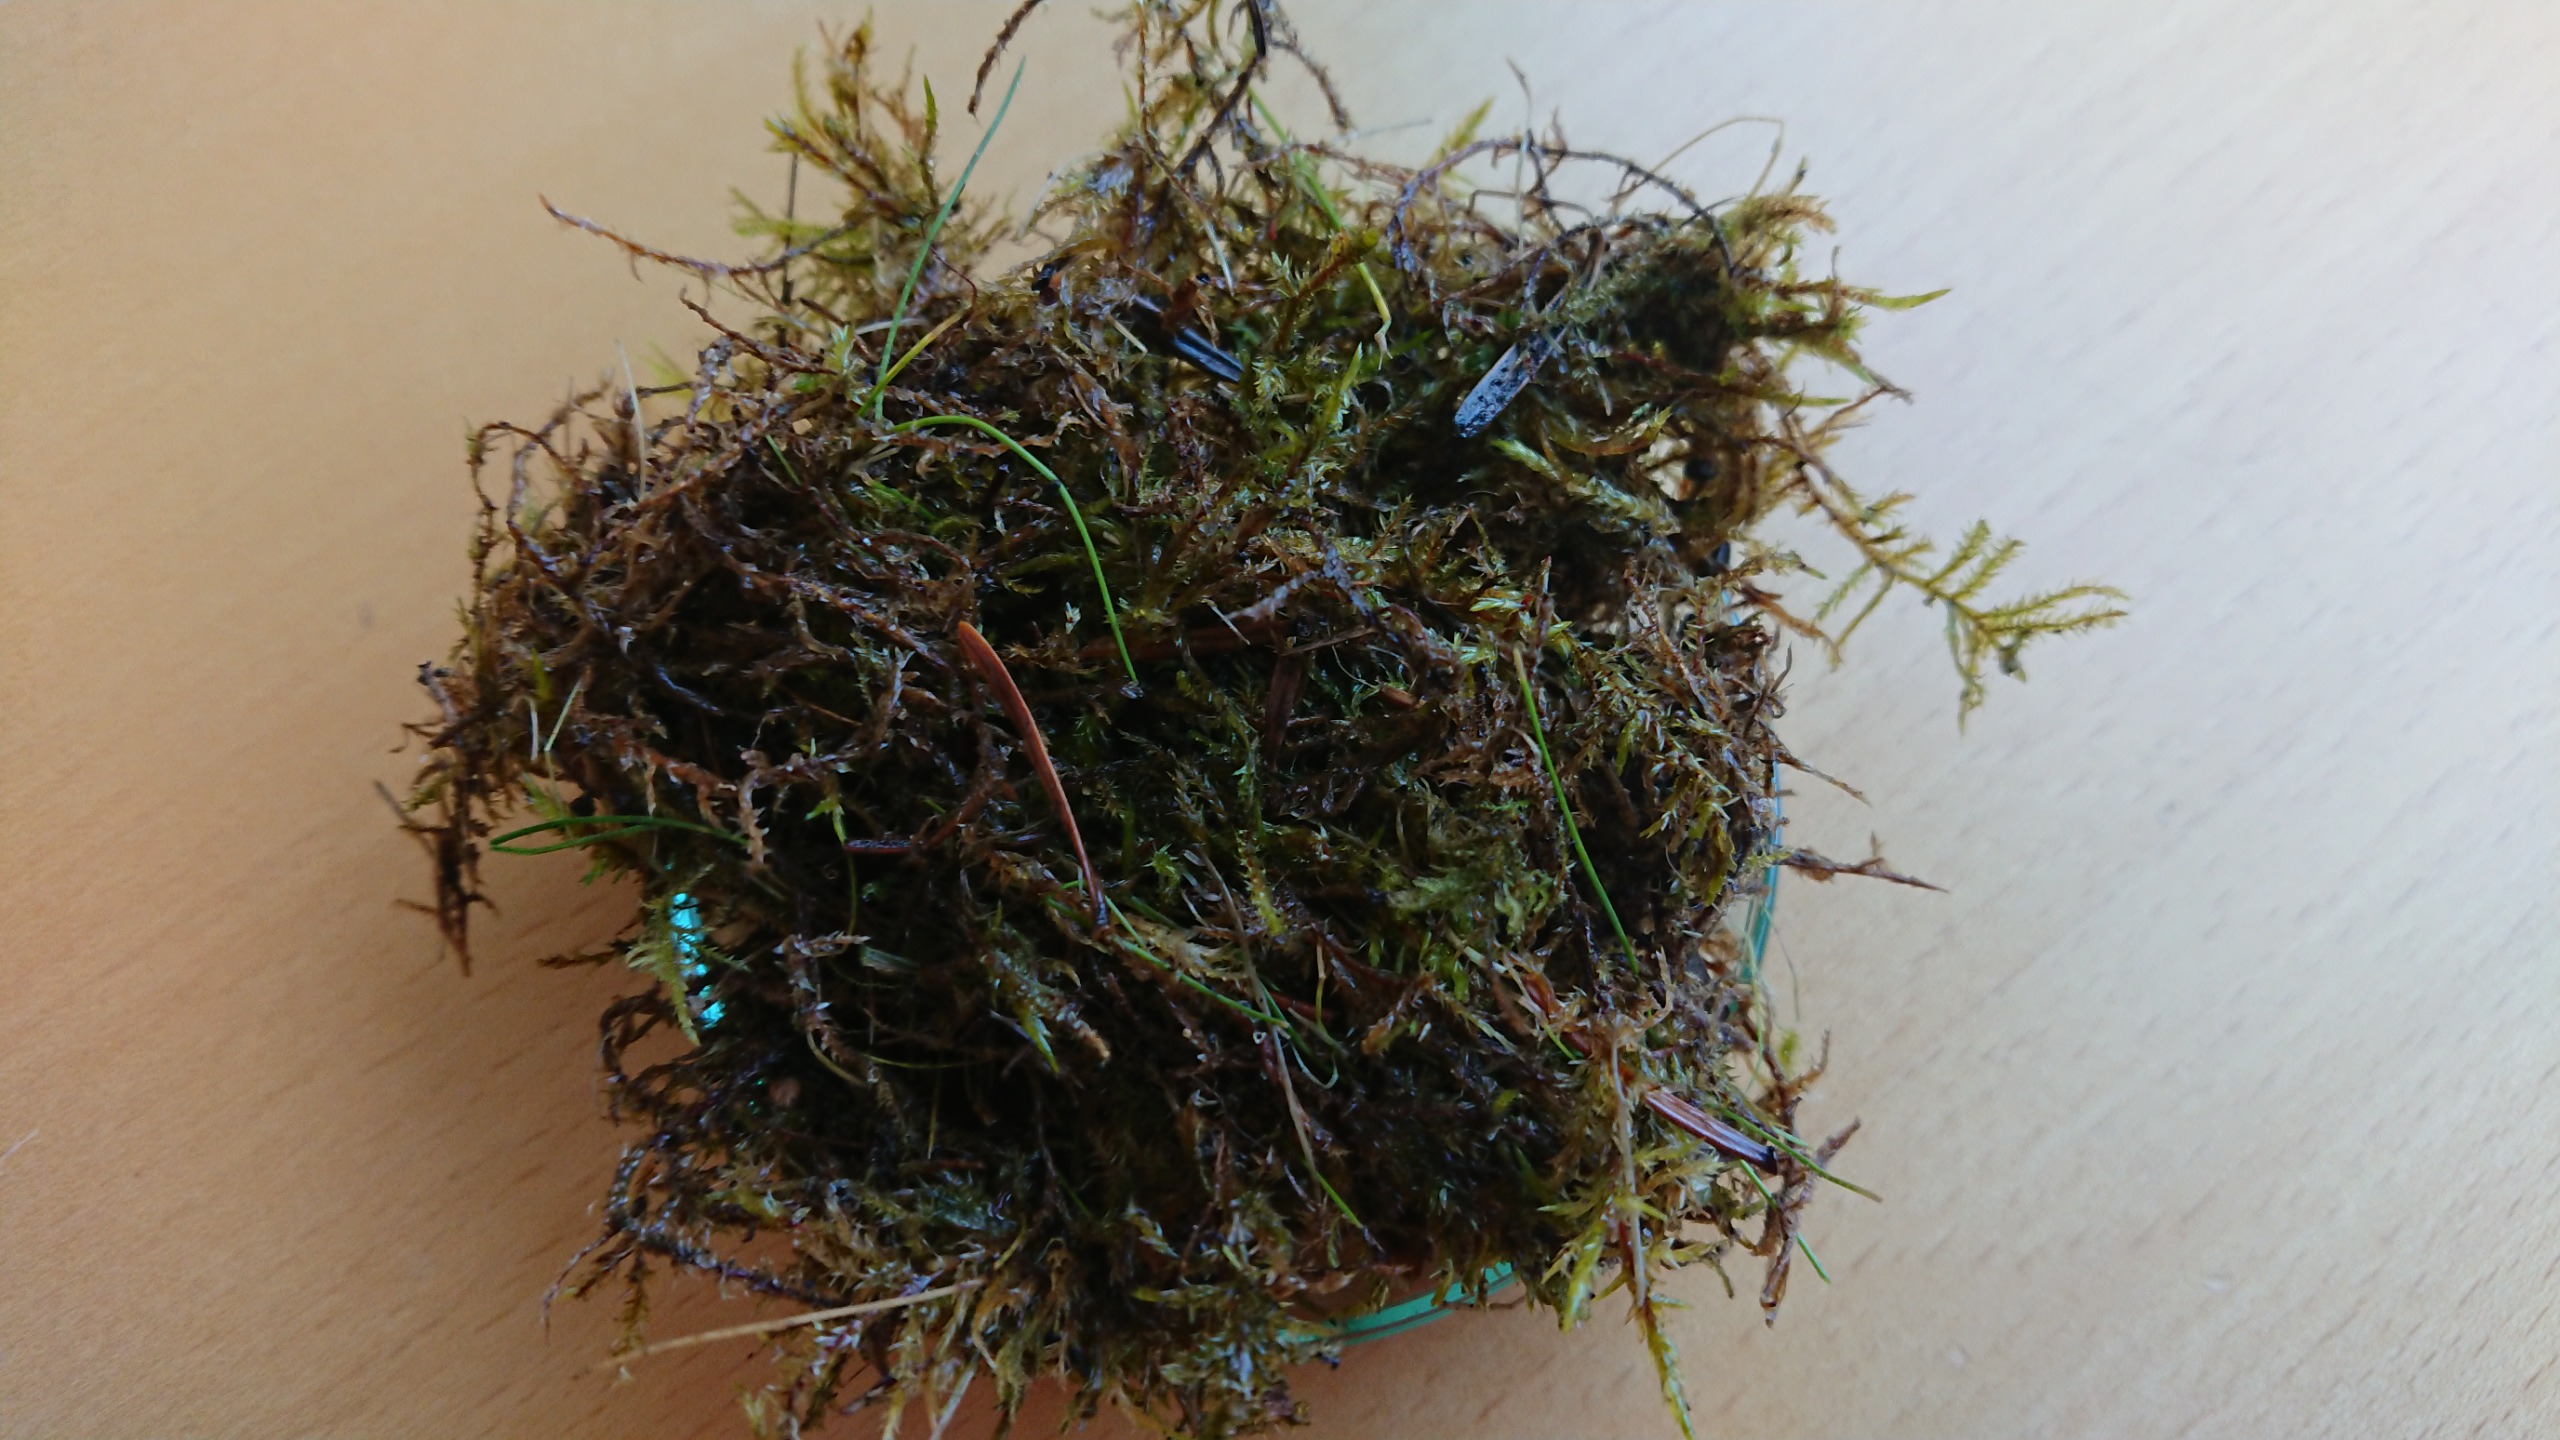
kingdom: Plantae
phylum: Bryophyta
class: Bryopsida
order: Hypnales
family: Pylaisiaceae
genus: Calliergonella
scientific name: Calliergonella cuspidata
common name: Spids spydmos
